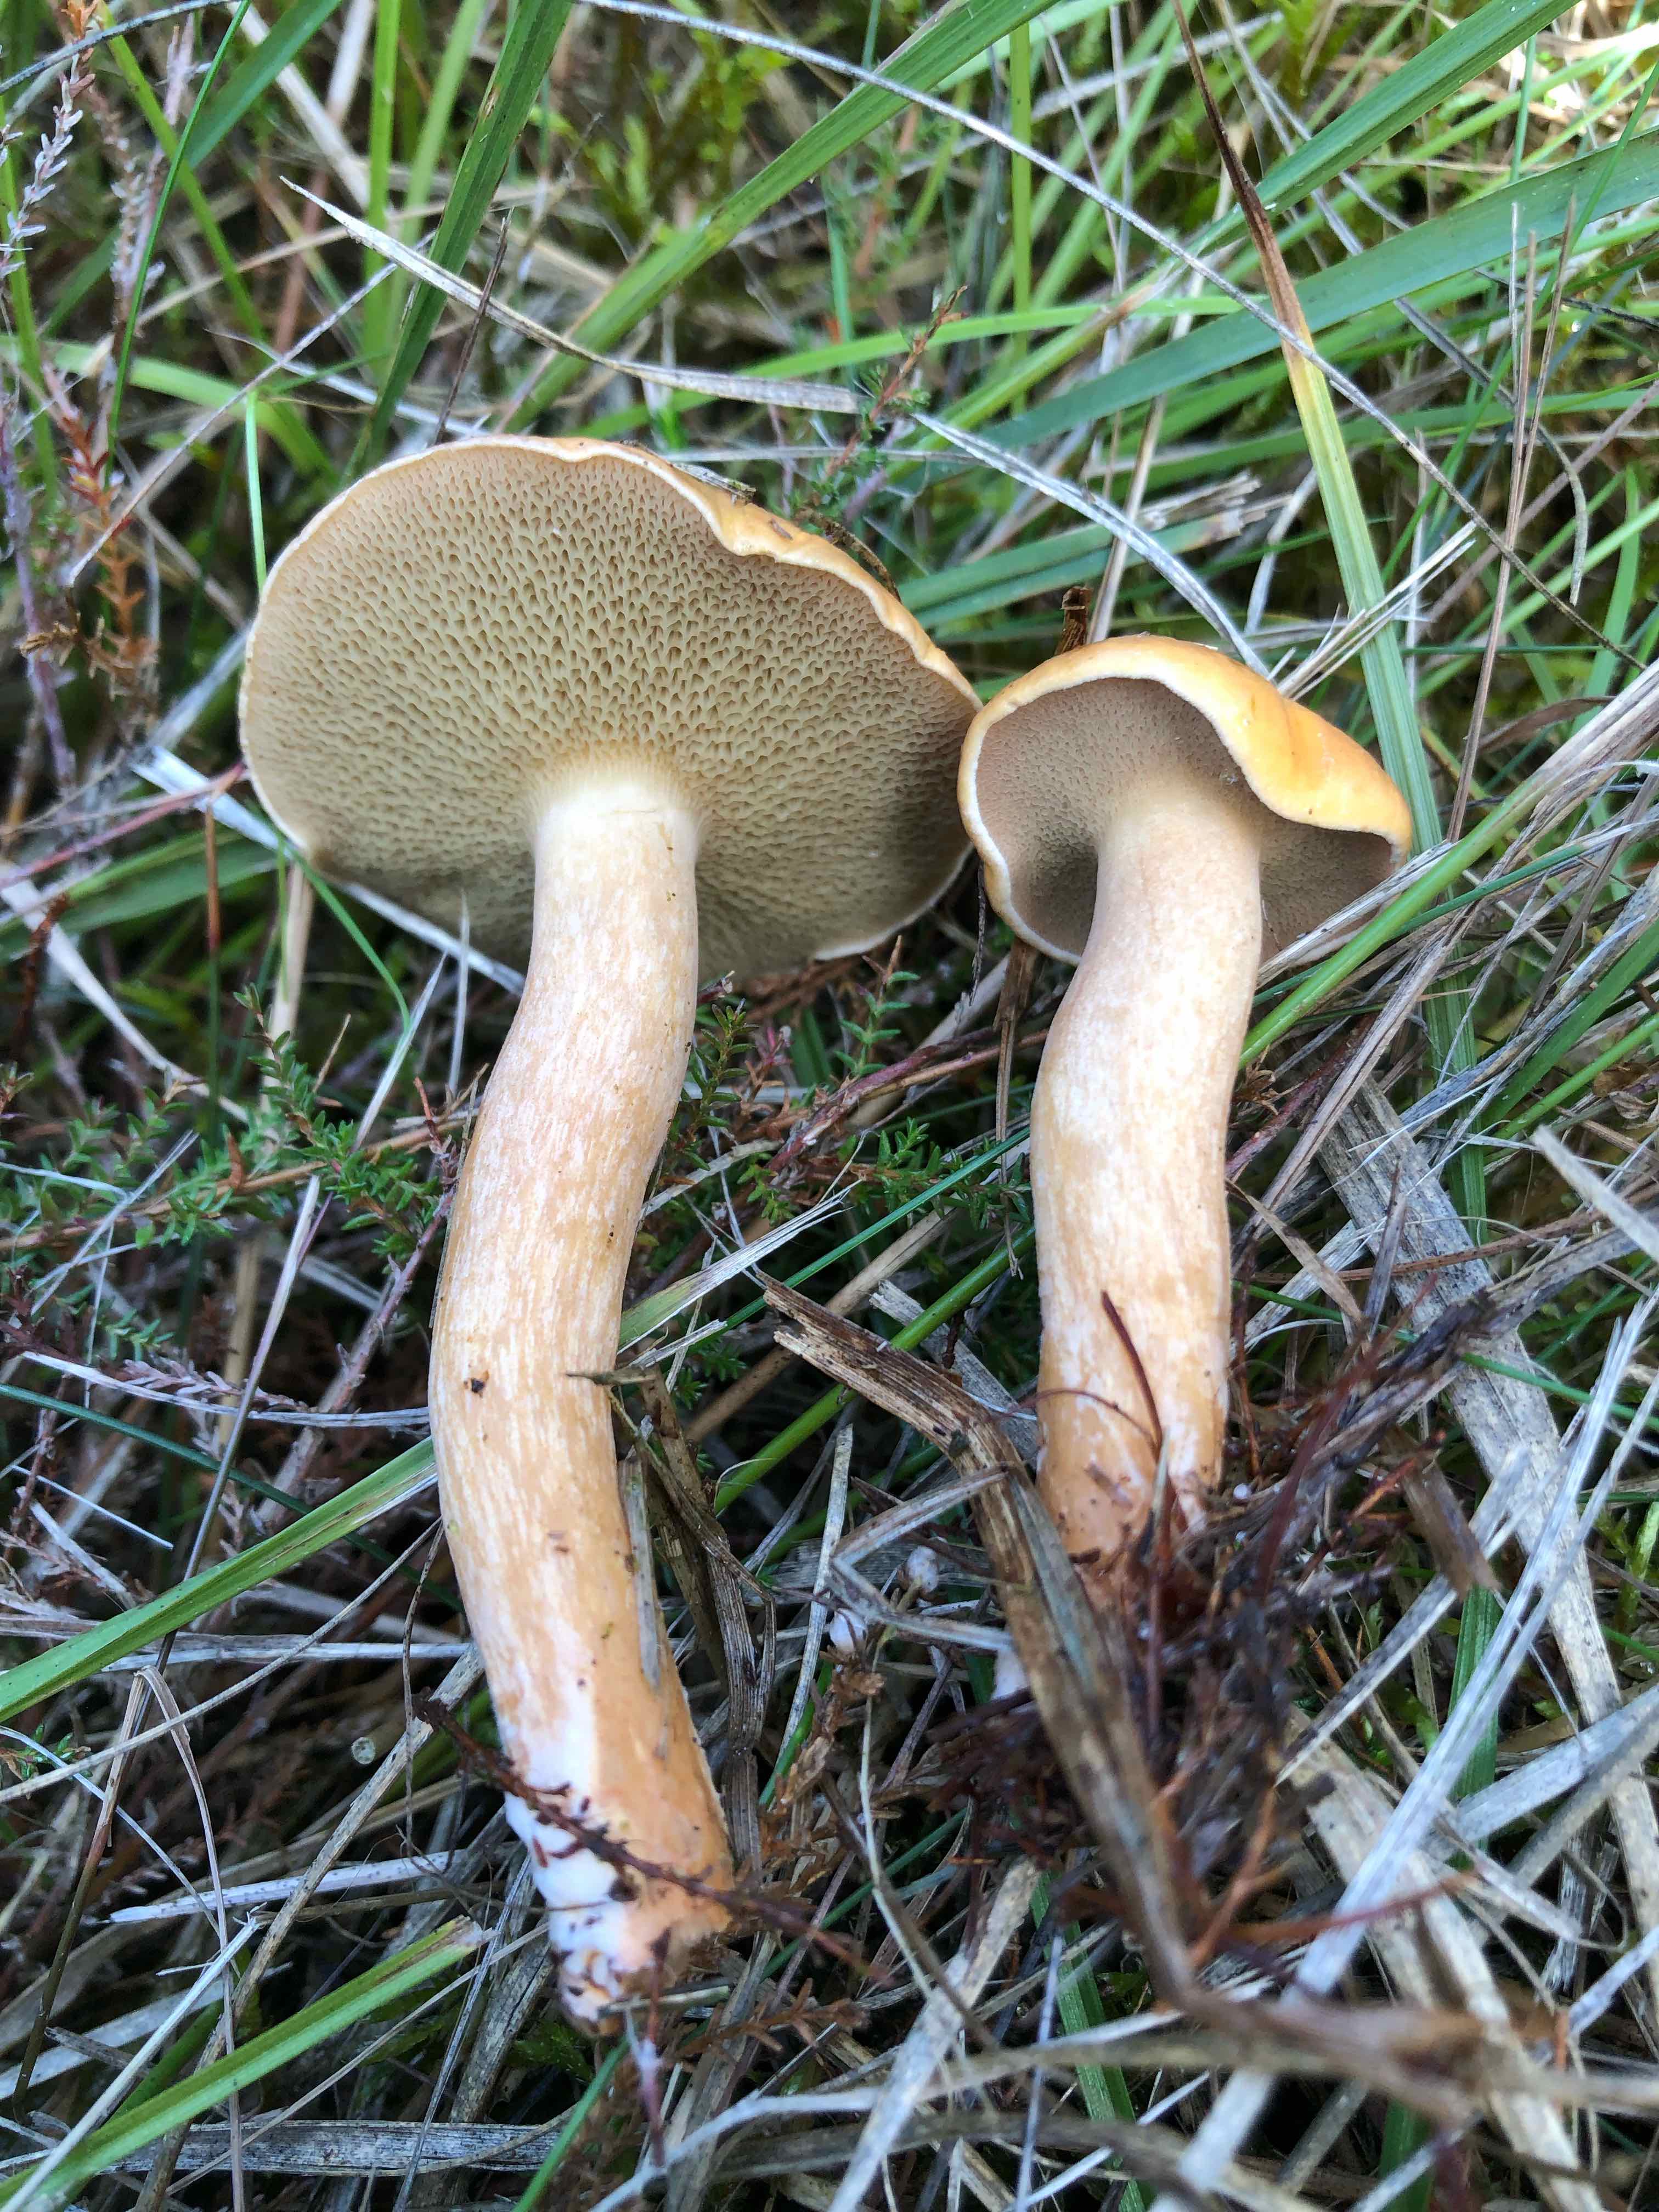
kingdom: Fungi
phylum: Basidiomycota
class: Agaricomycetes
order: Boletales
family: Suillaceae
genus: Suillus
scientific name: Suillus bovinus
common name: grovporet slimrørhat
